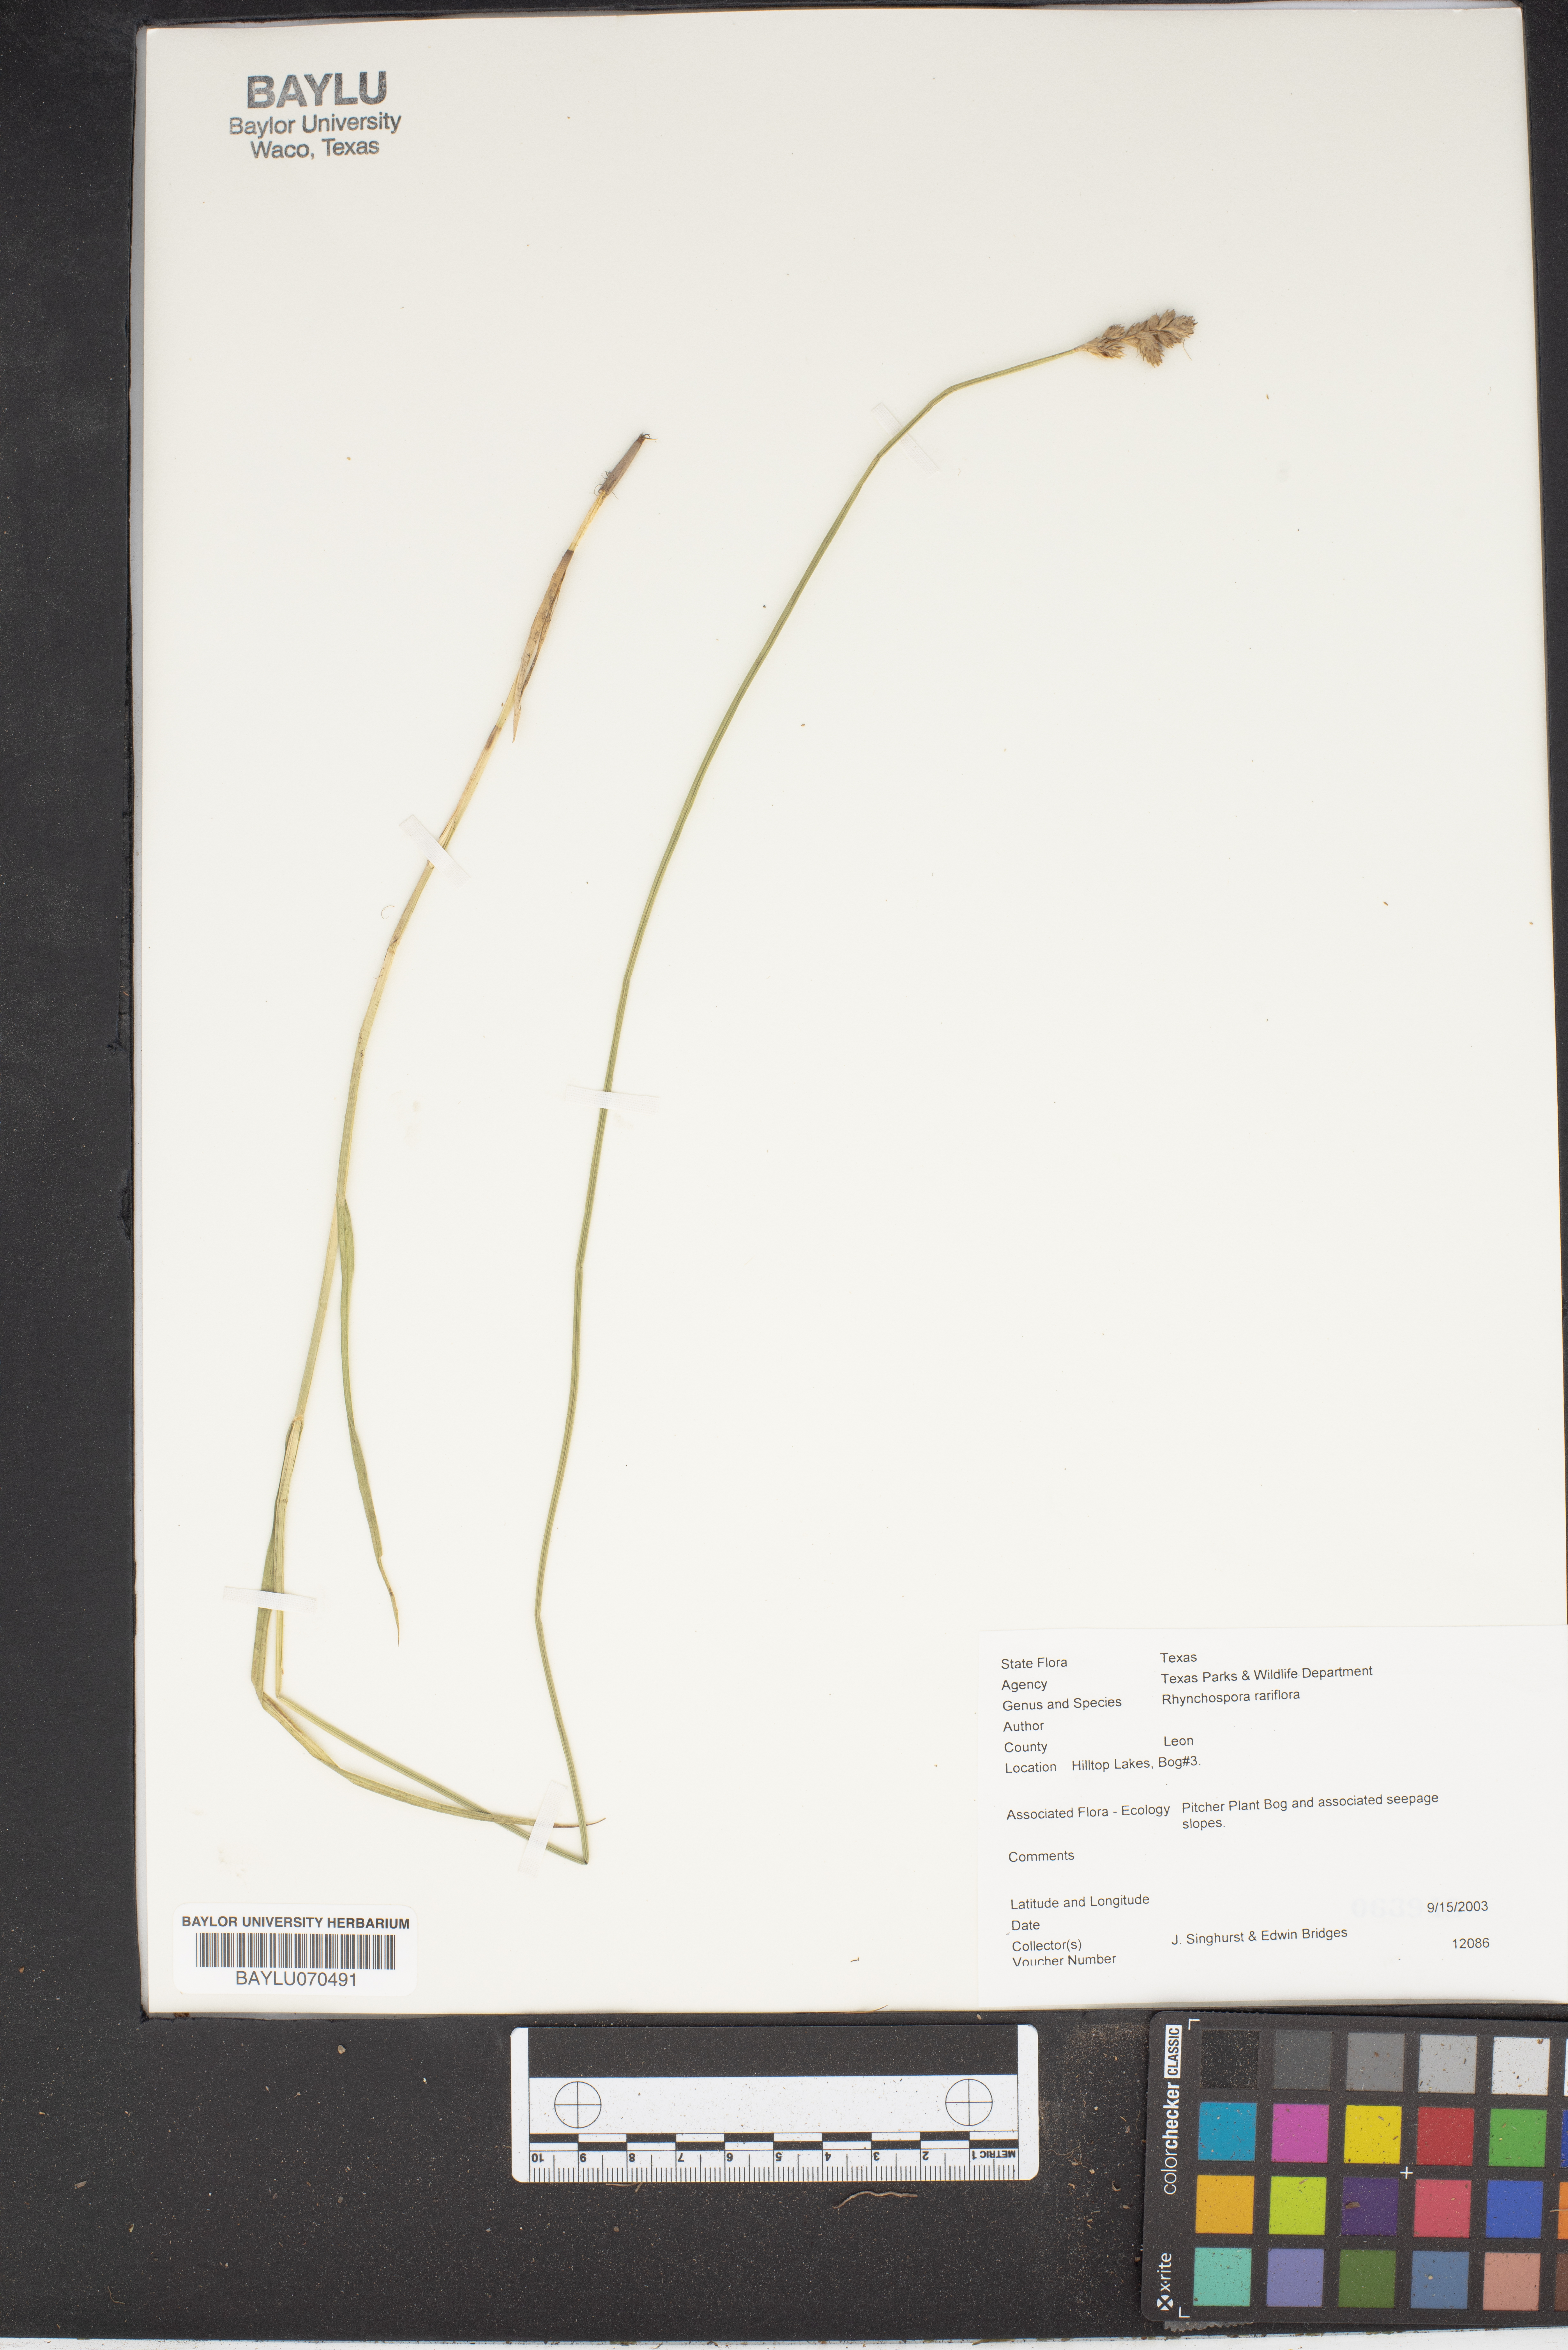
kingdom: Plantae
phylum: Tracheophyta
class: Liliopsida
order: Poales
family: Cyperaceae
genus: Rhynchospora
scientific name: Rhynchospora rariflora
